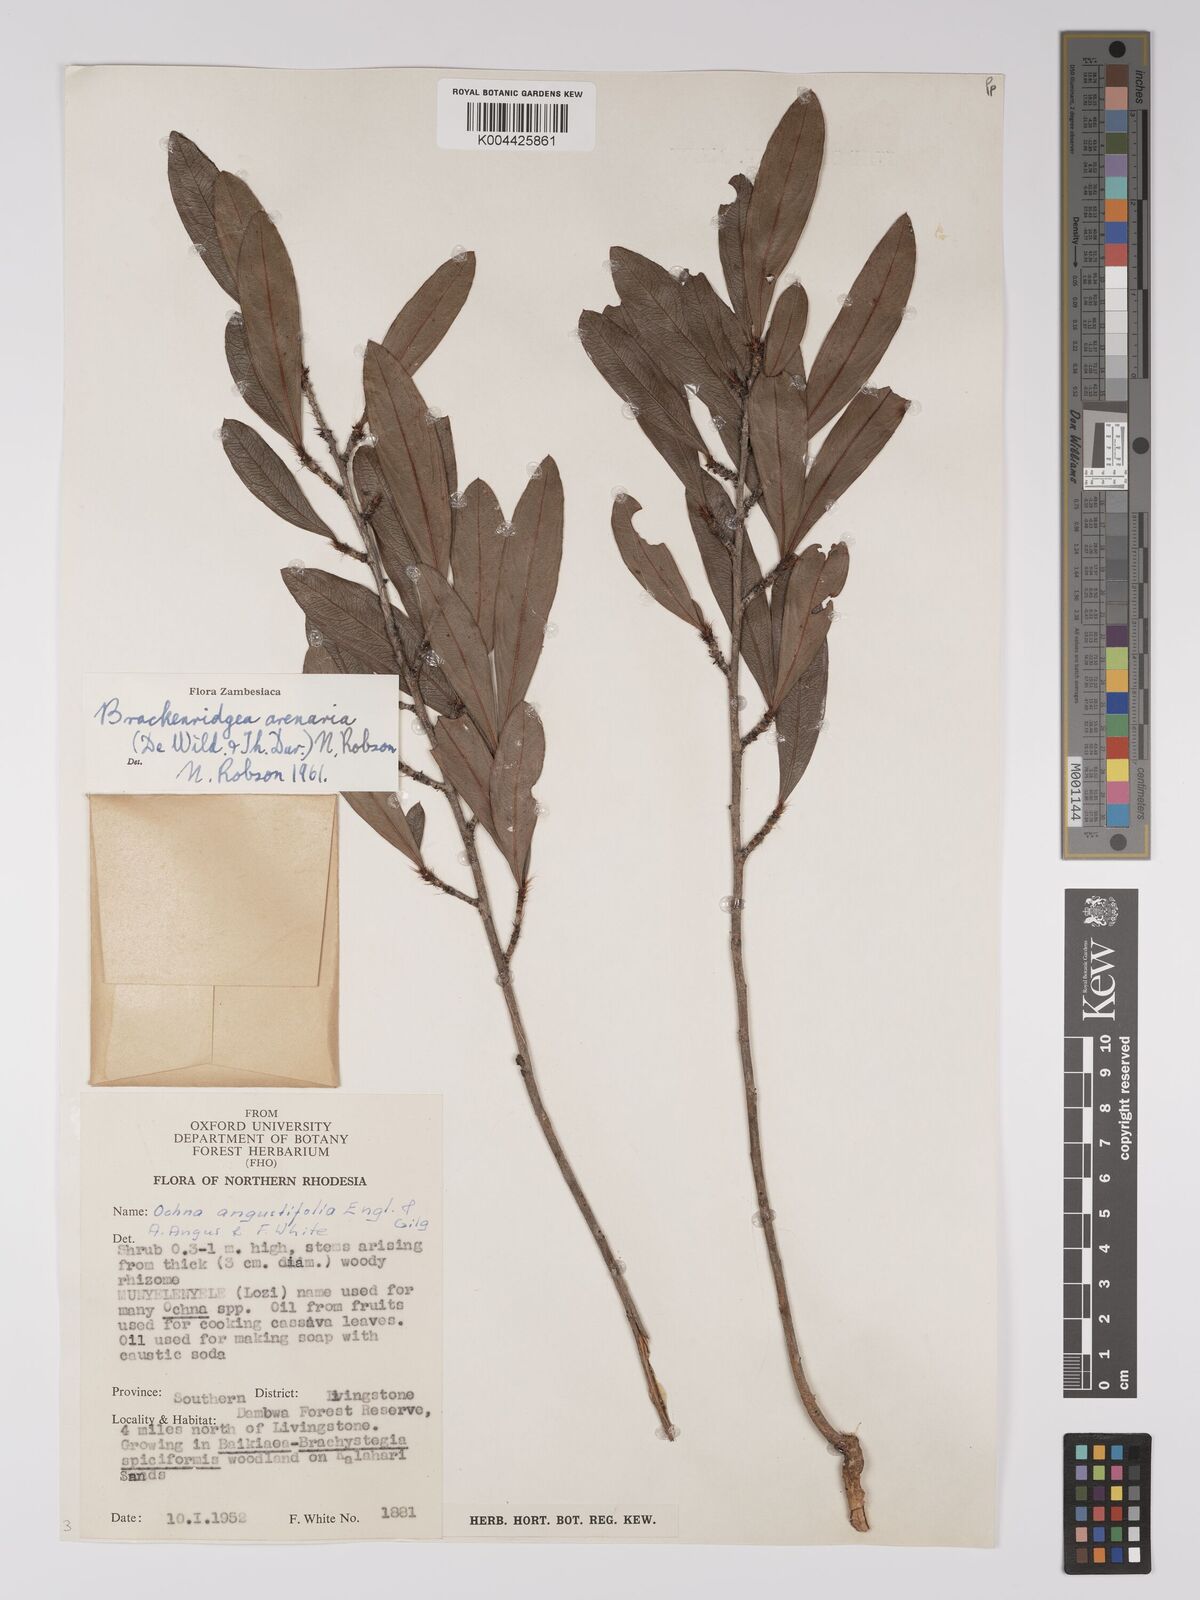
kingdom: Plantae
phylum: Tracheophyta
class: Magnoliopsida
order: Malpighiales
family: Ochnaceae
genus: Ochna
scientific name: Ochna arenaria
